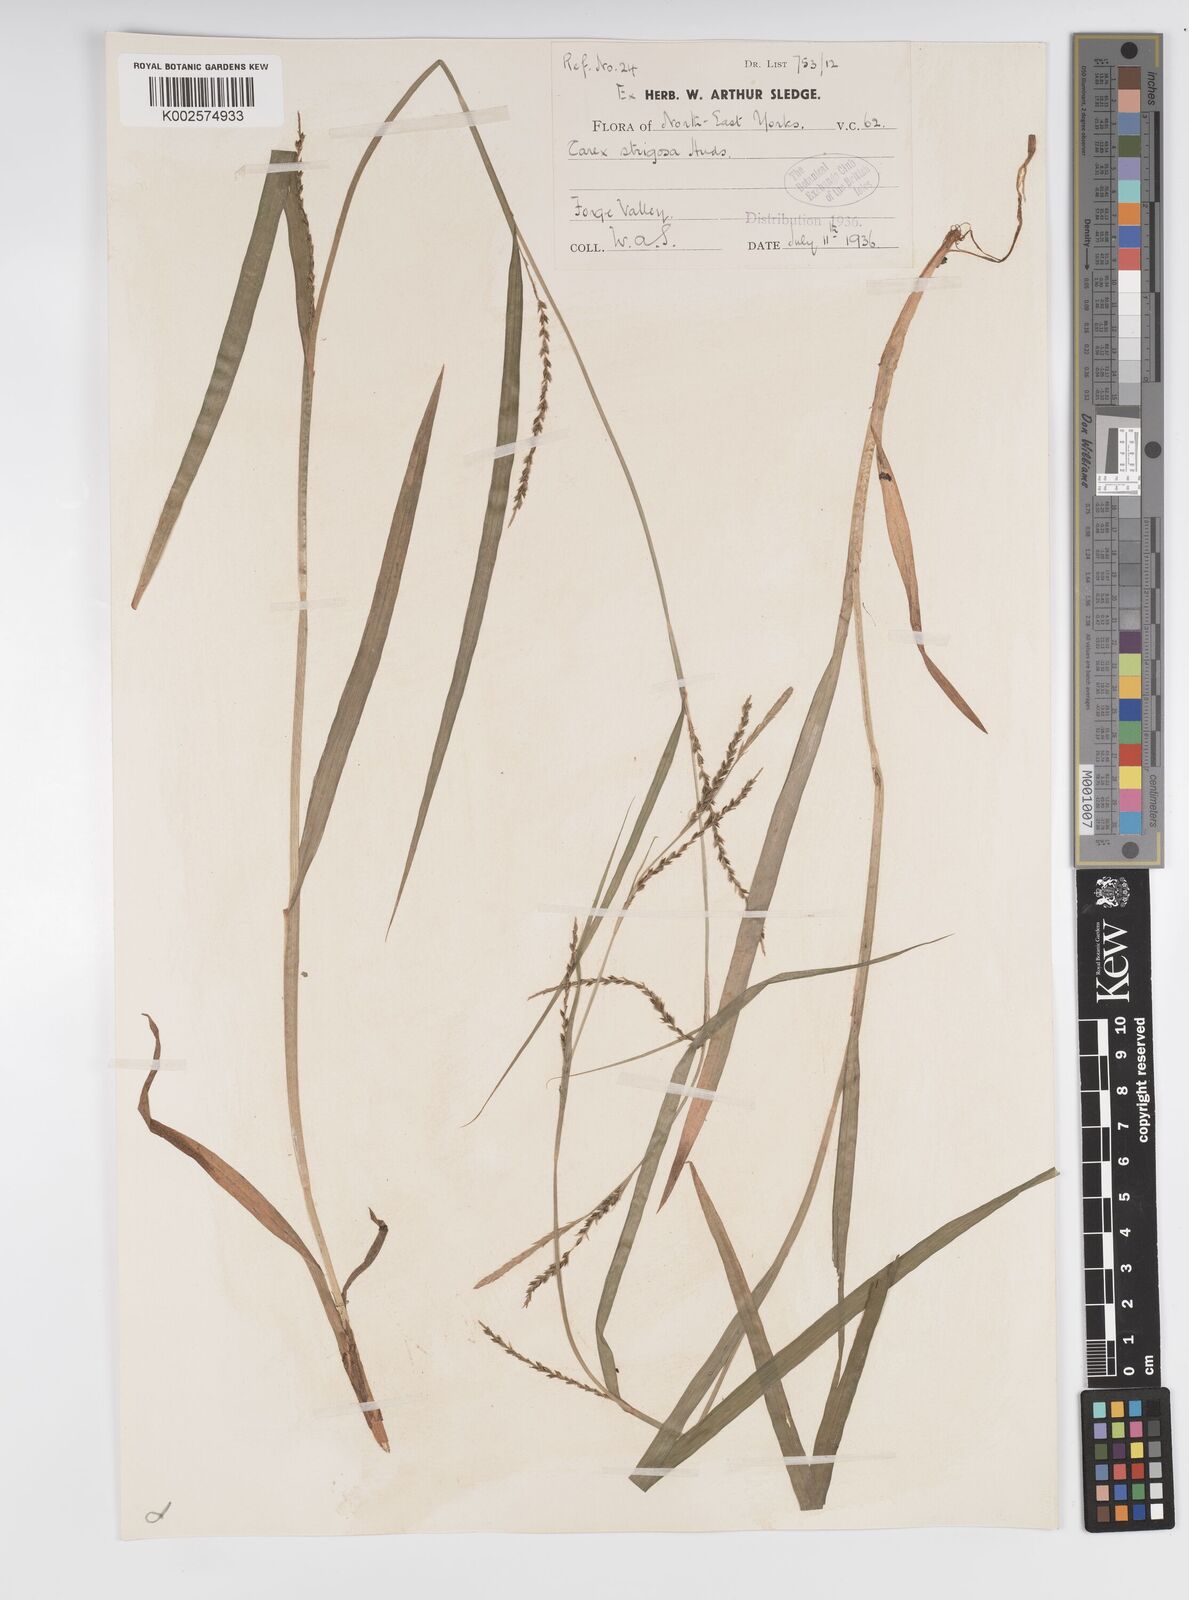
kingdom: Plantae
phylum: Tracheophyta
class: Liliopsida
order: Poales
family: Cyperaceae
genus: Carex
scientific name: Carex strigosa
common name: Thin-spiked wood-sedge
